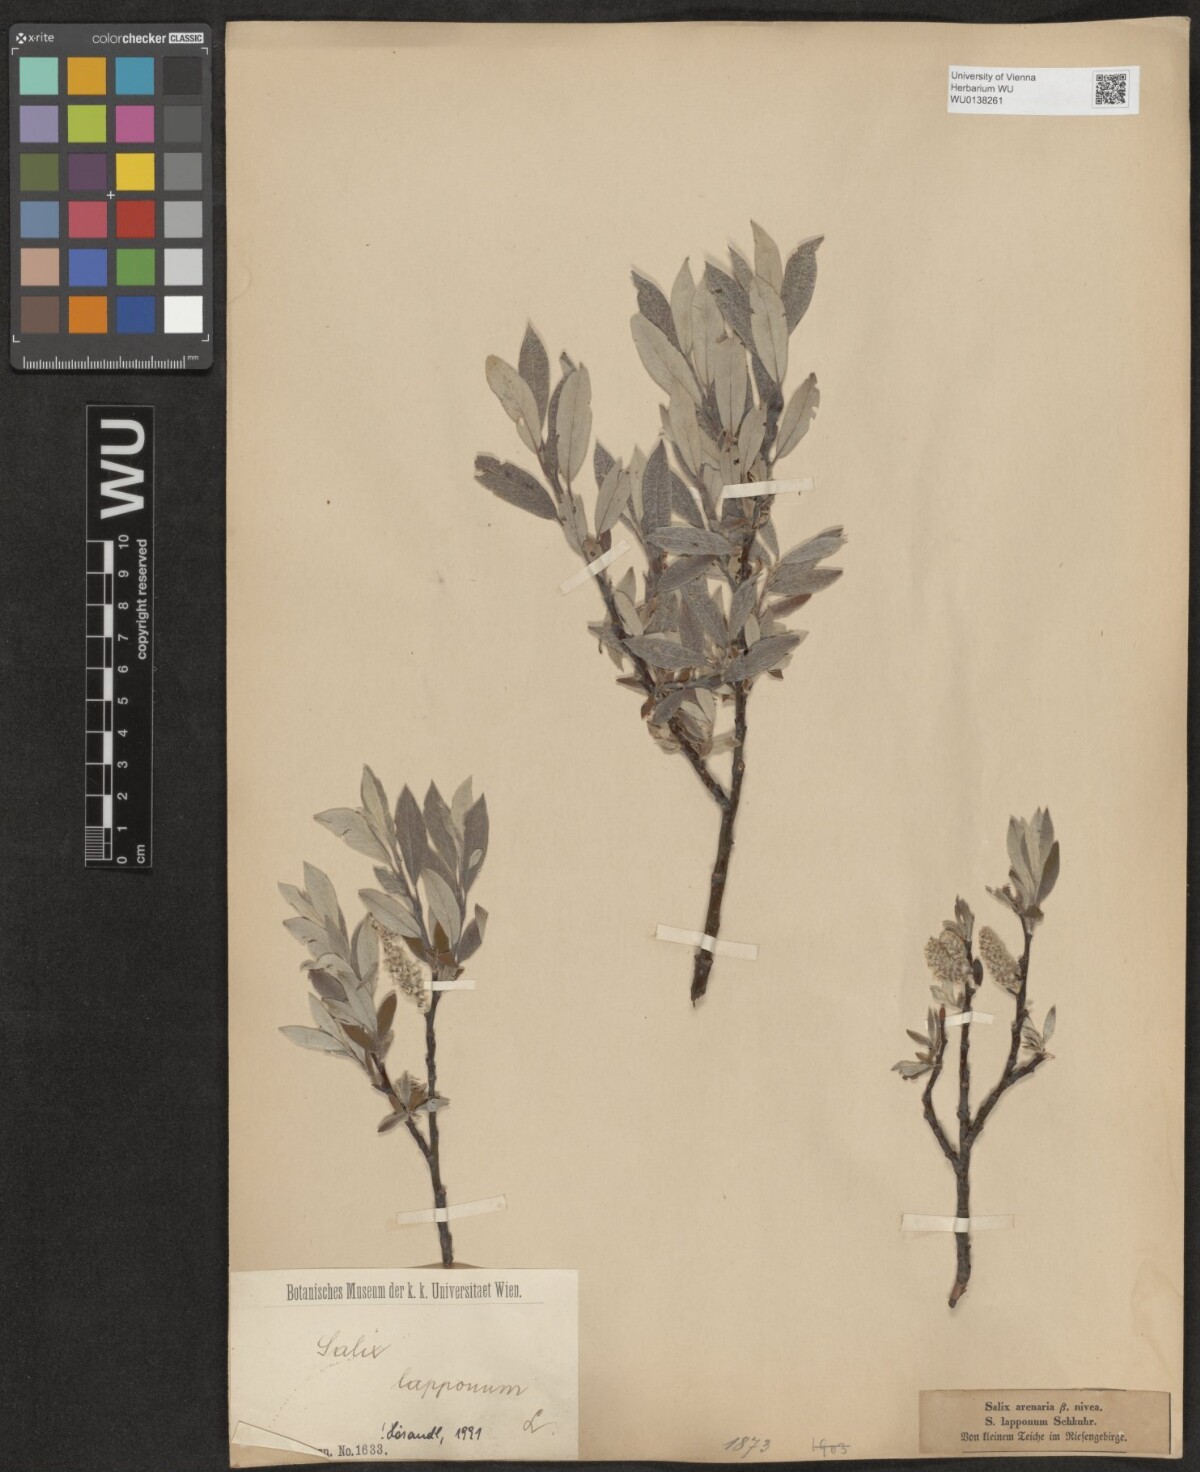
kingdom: Plantae
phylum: Tracheophyta
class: Magnoliopsida
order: Malpighiales
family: Salicaceae
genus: Salix
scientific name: Salix lapponum
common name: Downy willow
